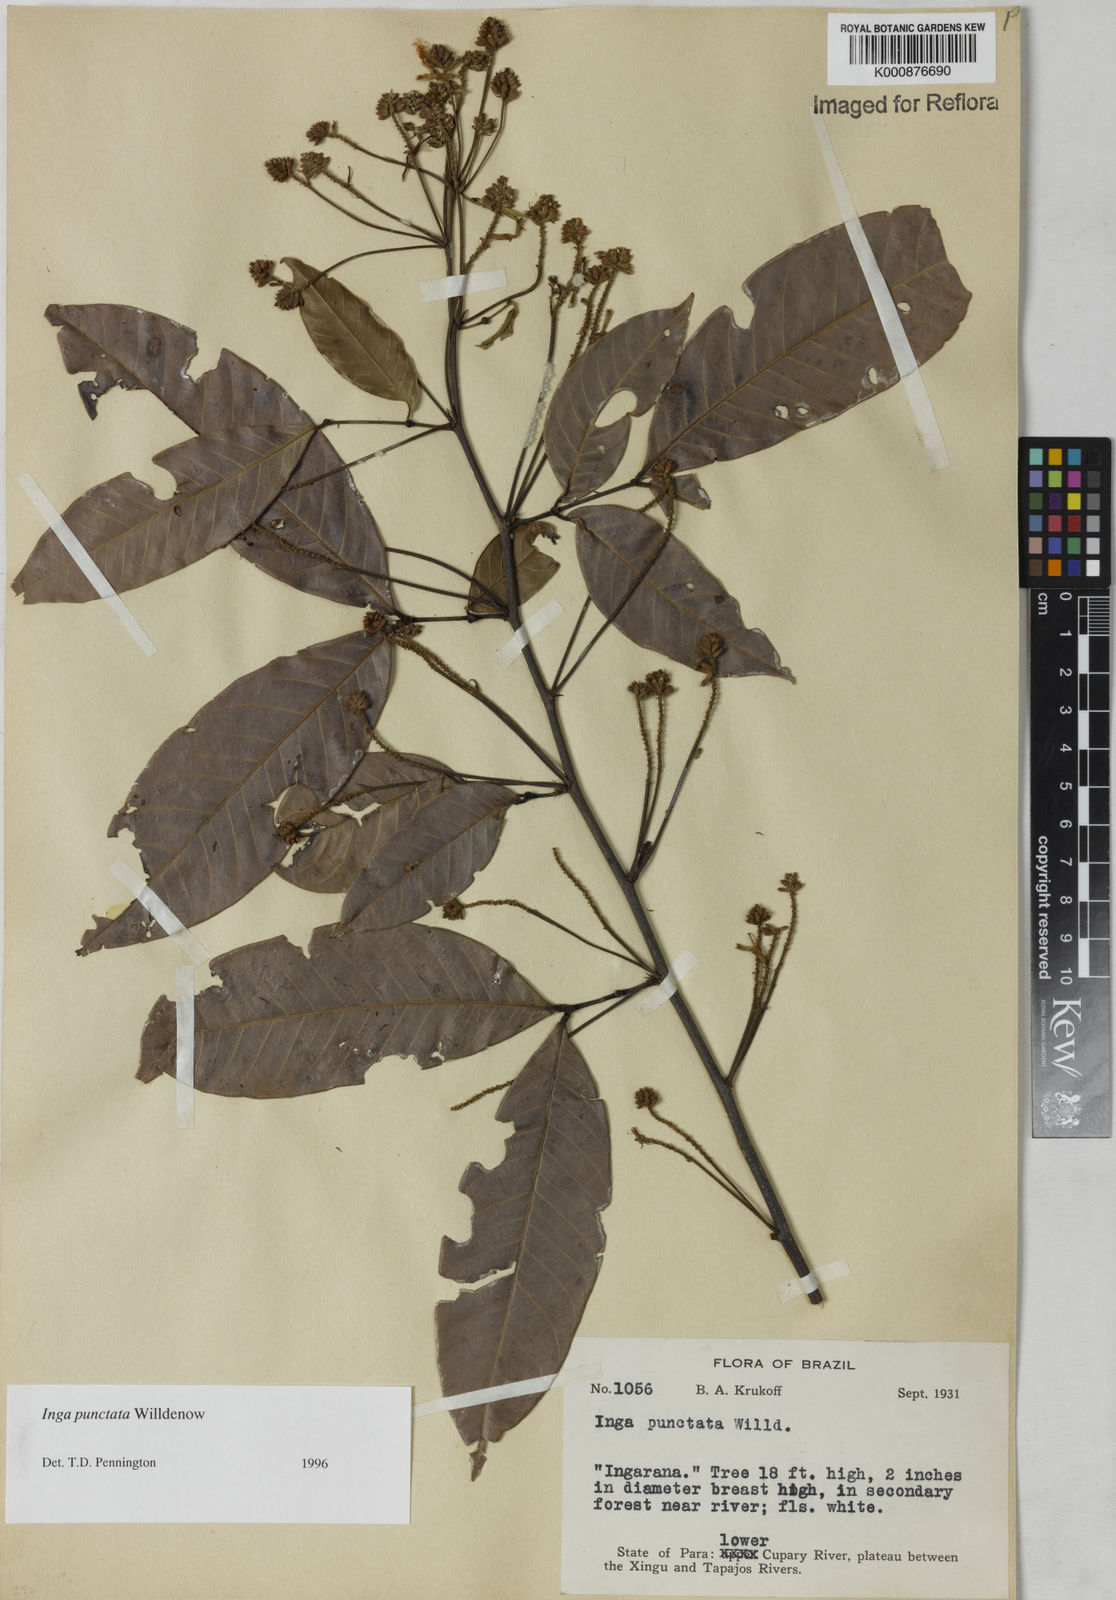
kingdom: Plantae
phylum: Tracheophyta
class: Magnoliopsida
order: Fabales
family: Fabaceae
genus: Inga
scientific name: Inga punctata
